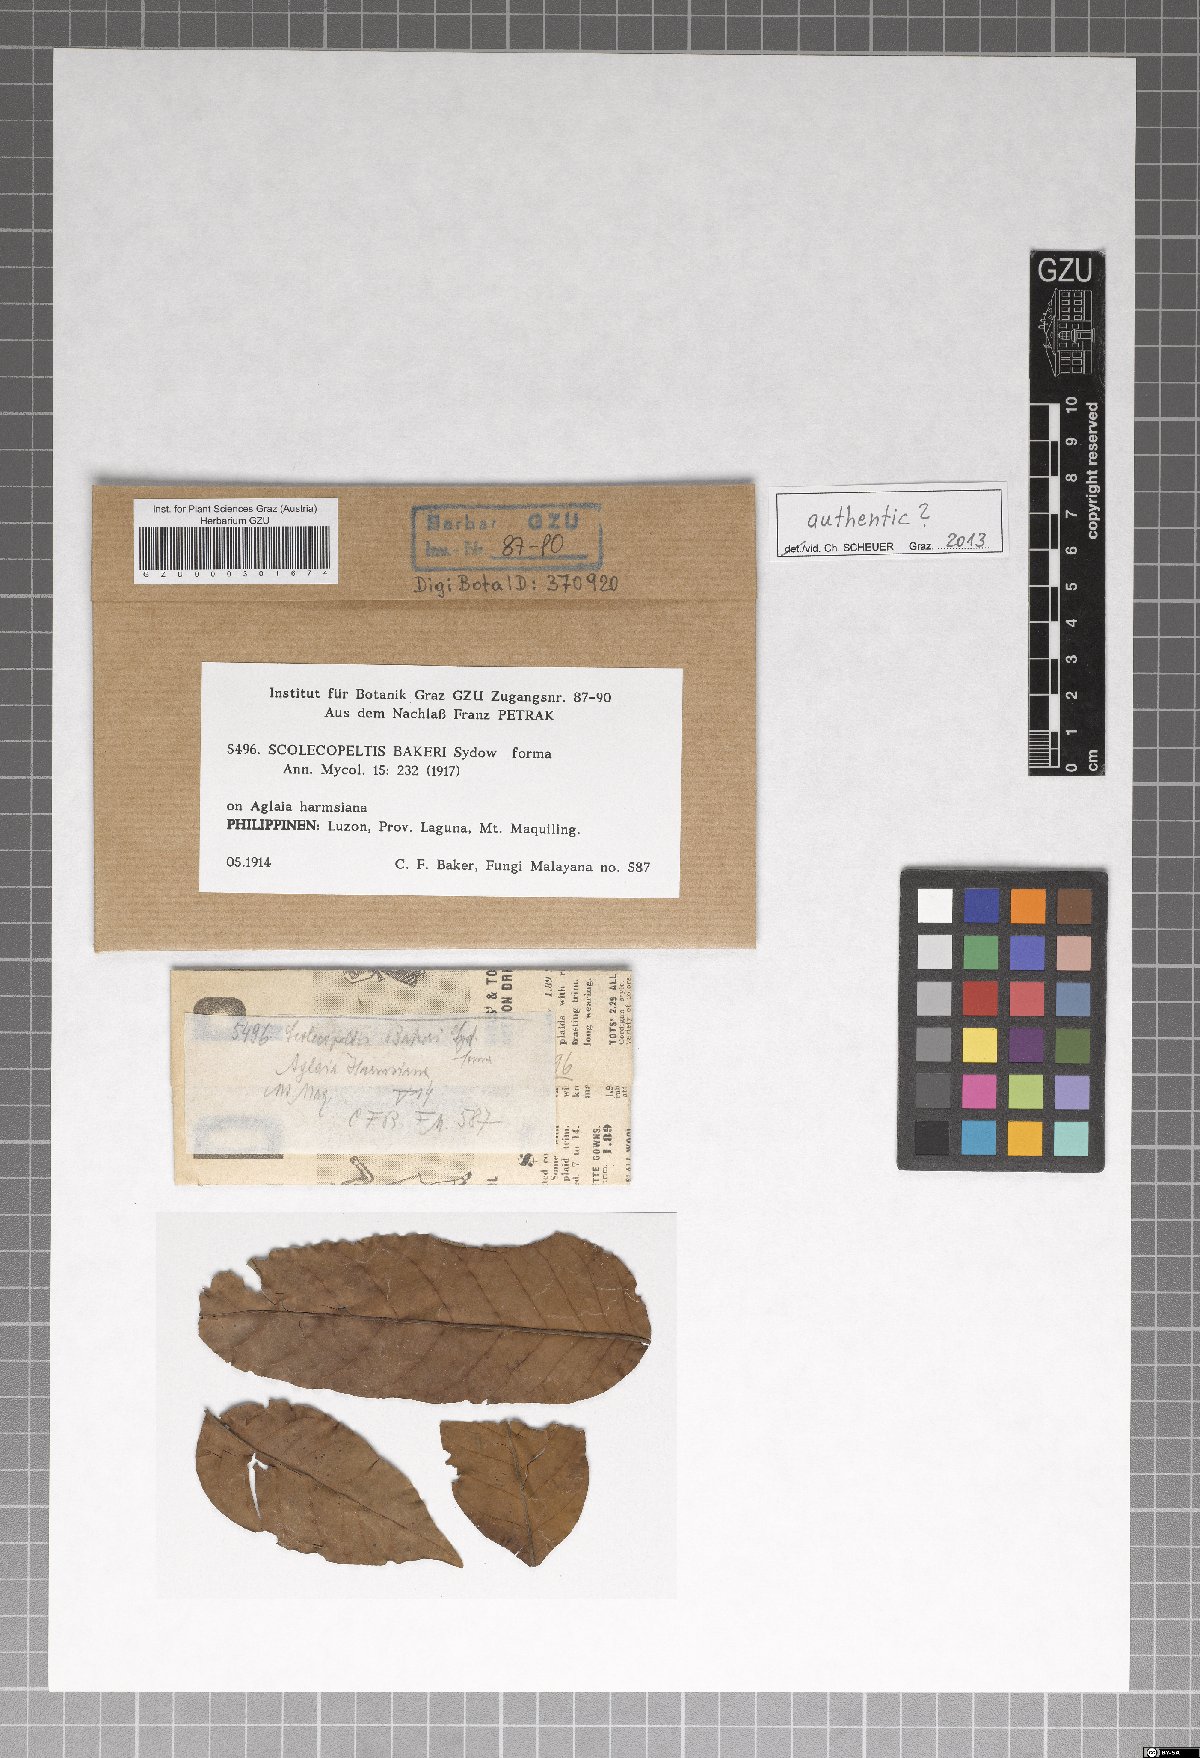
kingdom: Fungi
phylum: Ascomycota
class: Dothideomycetes
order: Microthyriales
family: Micropeltidaceae
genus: Scolecopeltis
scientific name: Scolecopeltis bakeri
